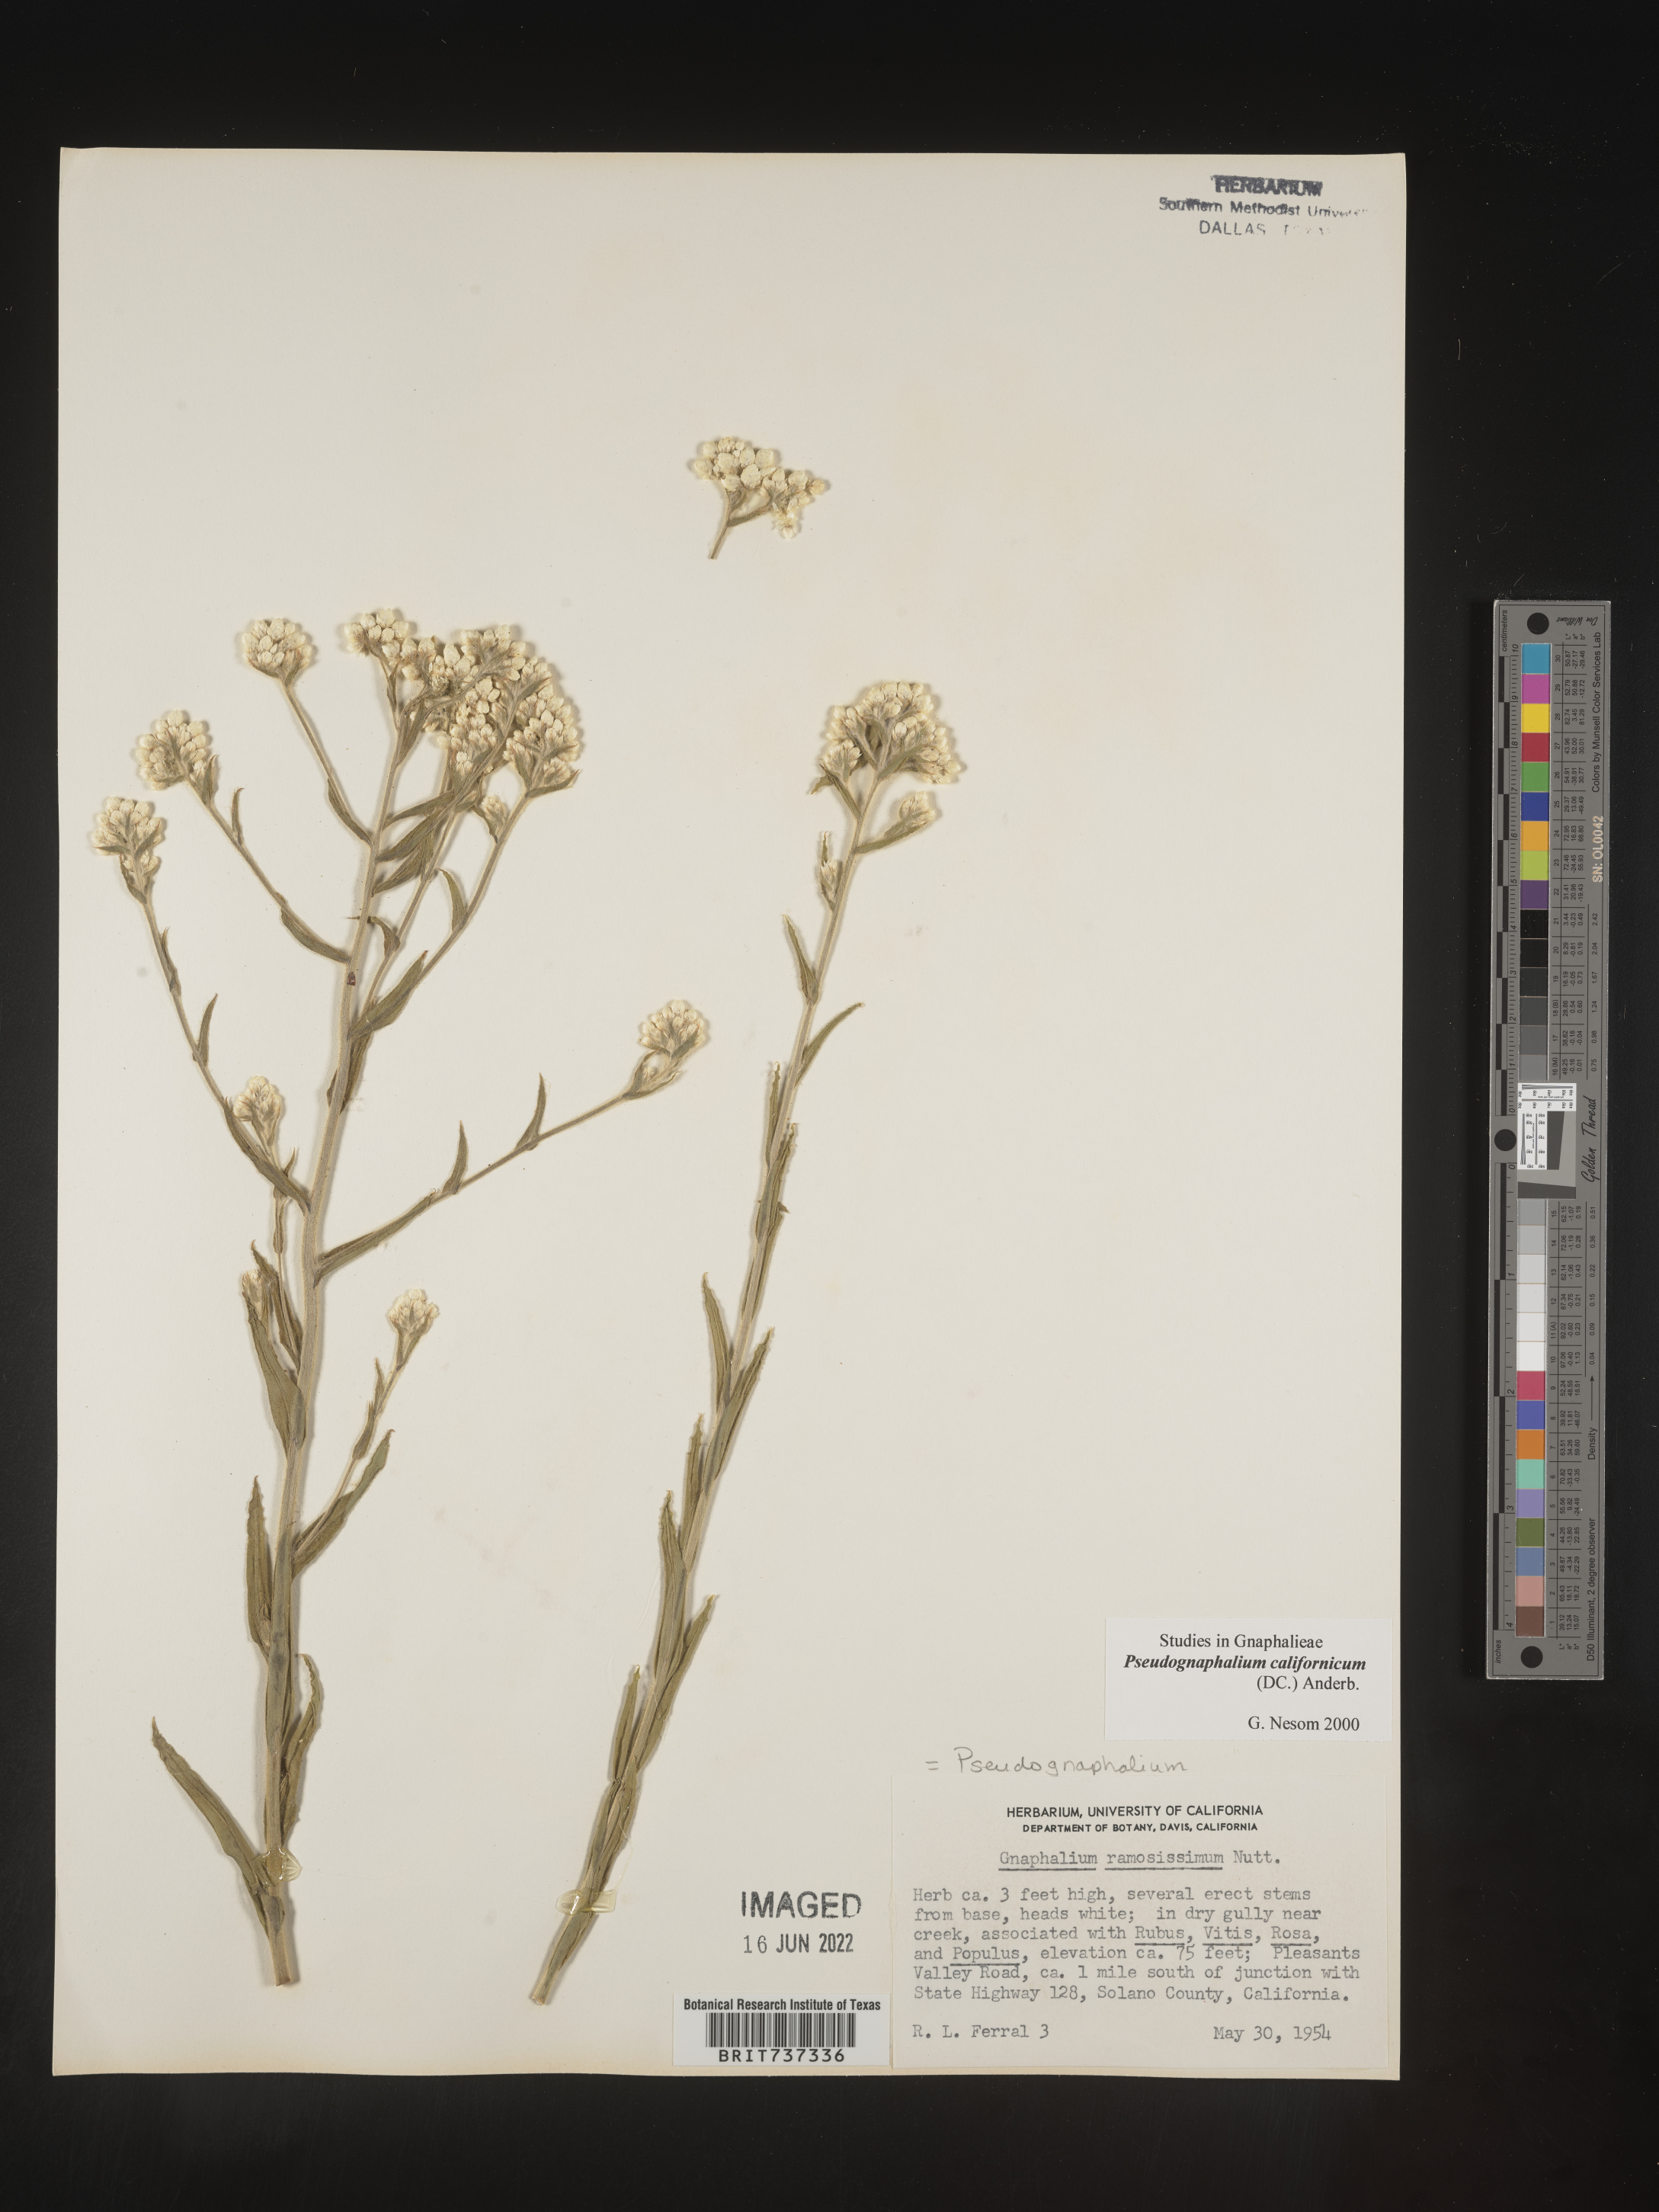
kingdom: Plantae
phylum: Tracheophyta
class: Magnoliopsida
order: Asterales
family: Asteraceae
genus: Pseudognaphalium
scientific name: Pseudognaphalium californicum
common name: California rabbit-tobacco
